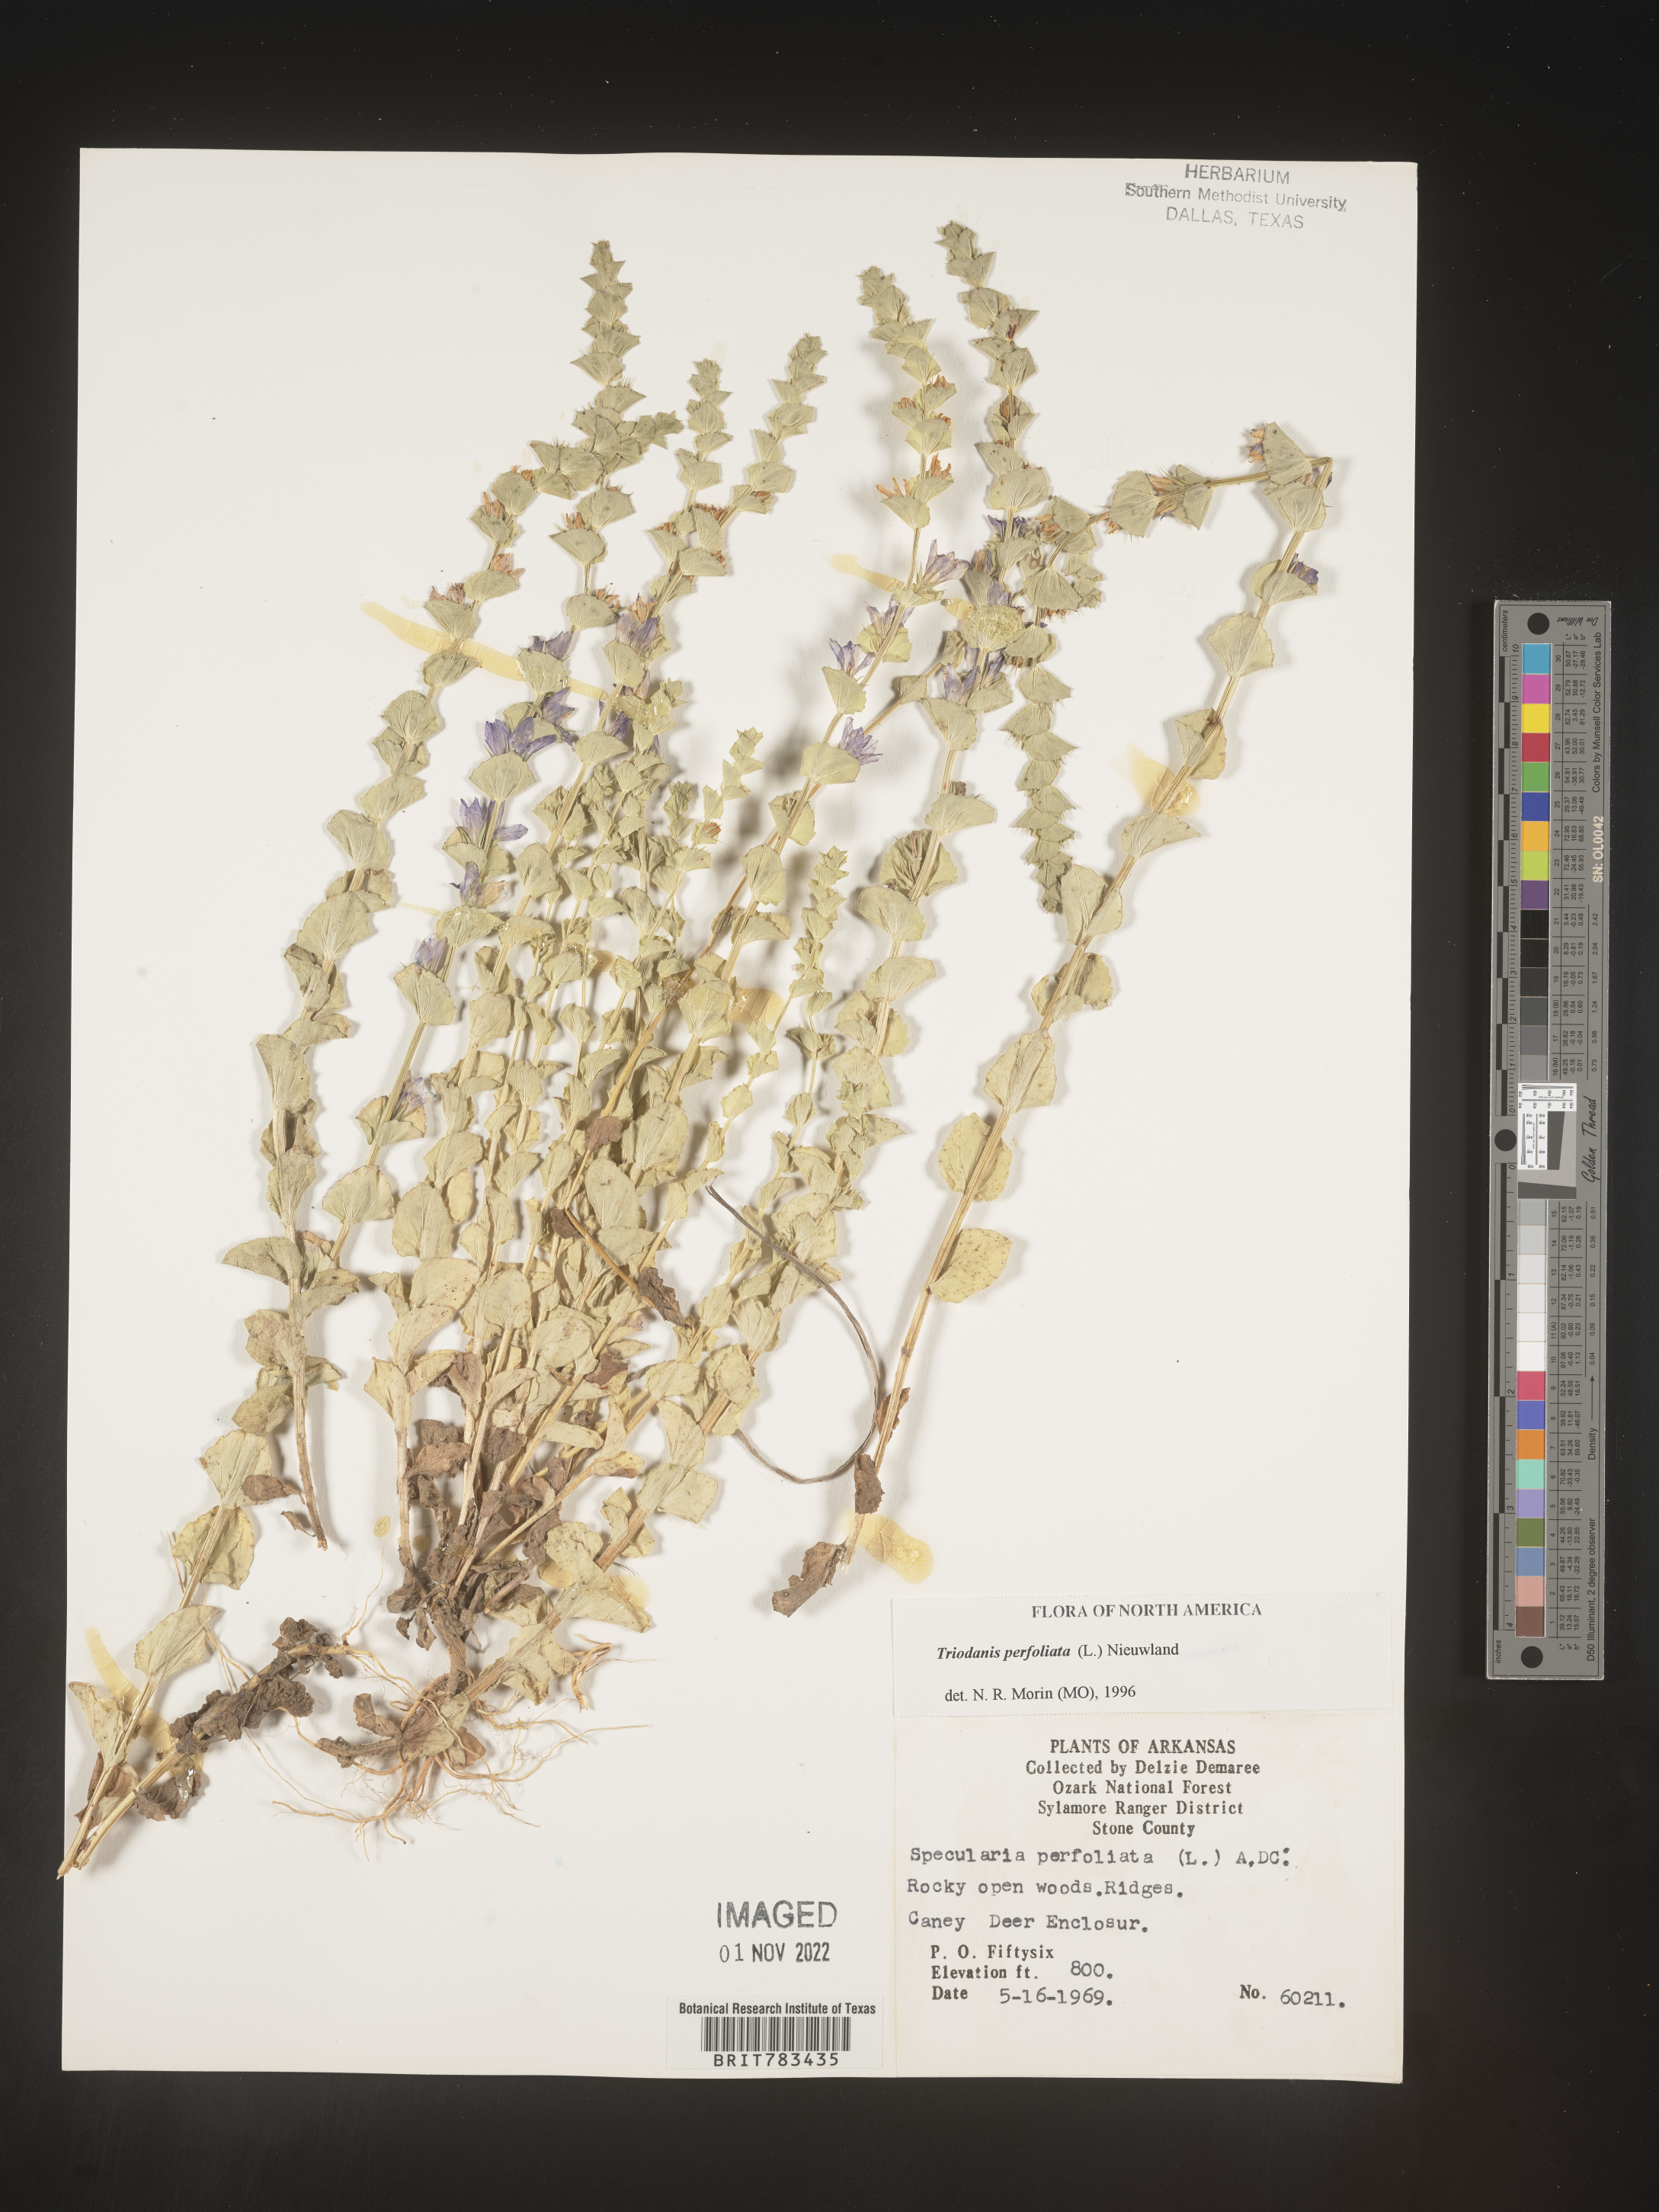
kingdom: Plantae
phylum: Tracheophyta
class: Magnoliopsida
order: Asterales
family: Campanulaceae
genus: Triodanis
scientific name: Triodanis perfoliata
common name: Clasping venus' looking-glass
